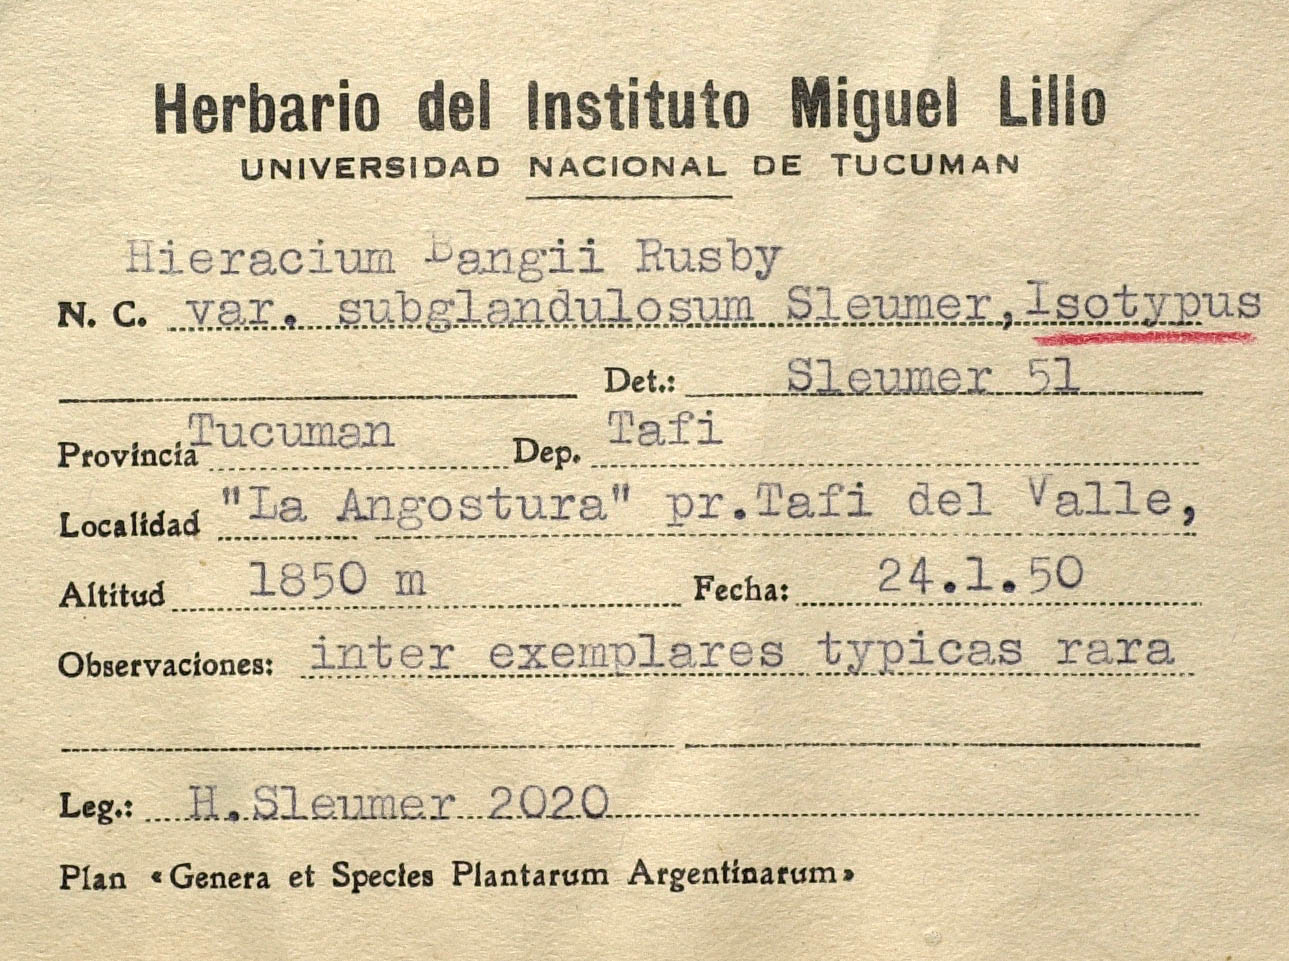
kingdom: Plantae
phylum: Tracheophyta
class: Magnoliopsida
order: Asterales
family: Asteraceae
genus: Hieracium
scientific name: Hieracium microcephalum
